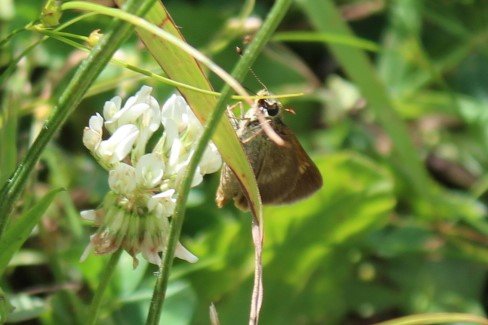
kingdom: Animalia
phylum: Arthropoda
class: Insecta
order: Lepidoptera
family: Hesperiidae
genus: Polites
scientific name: Polites
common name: Crossline Skipper
